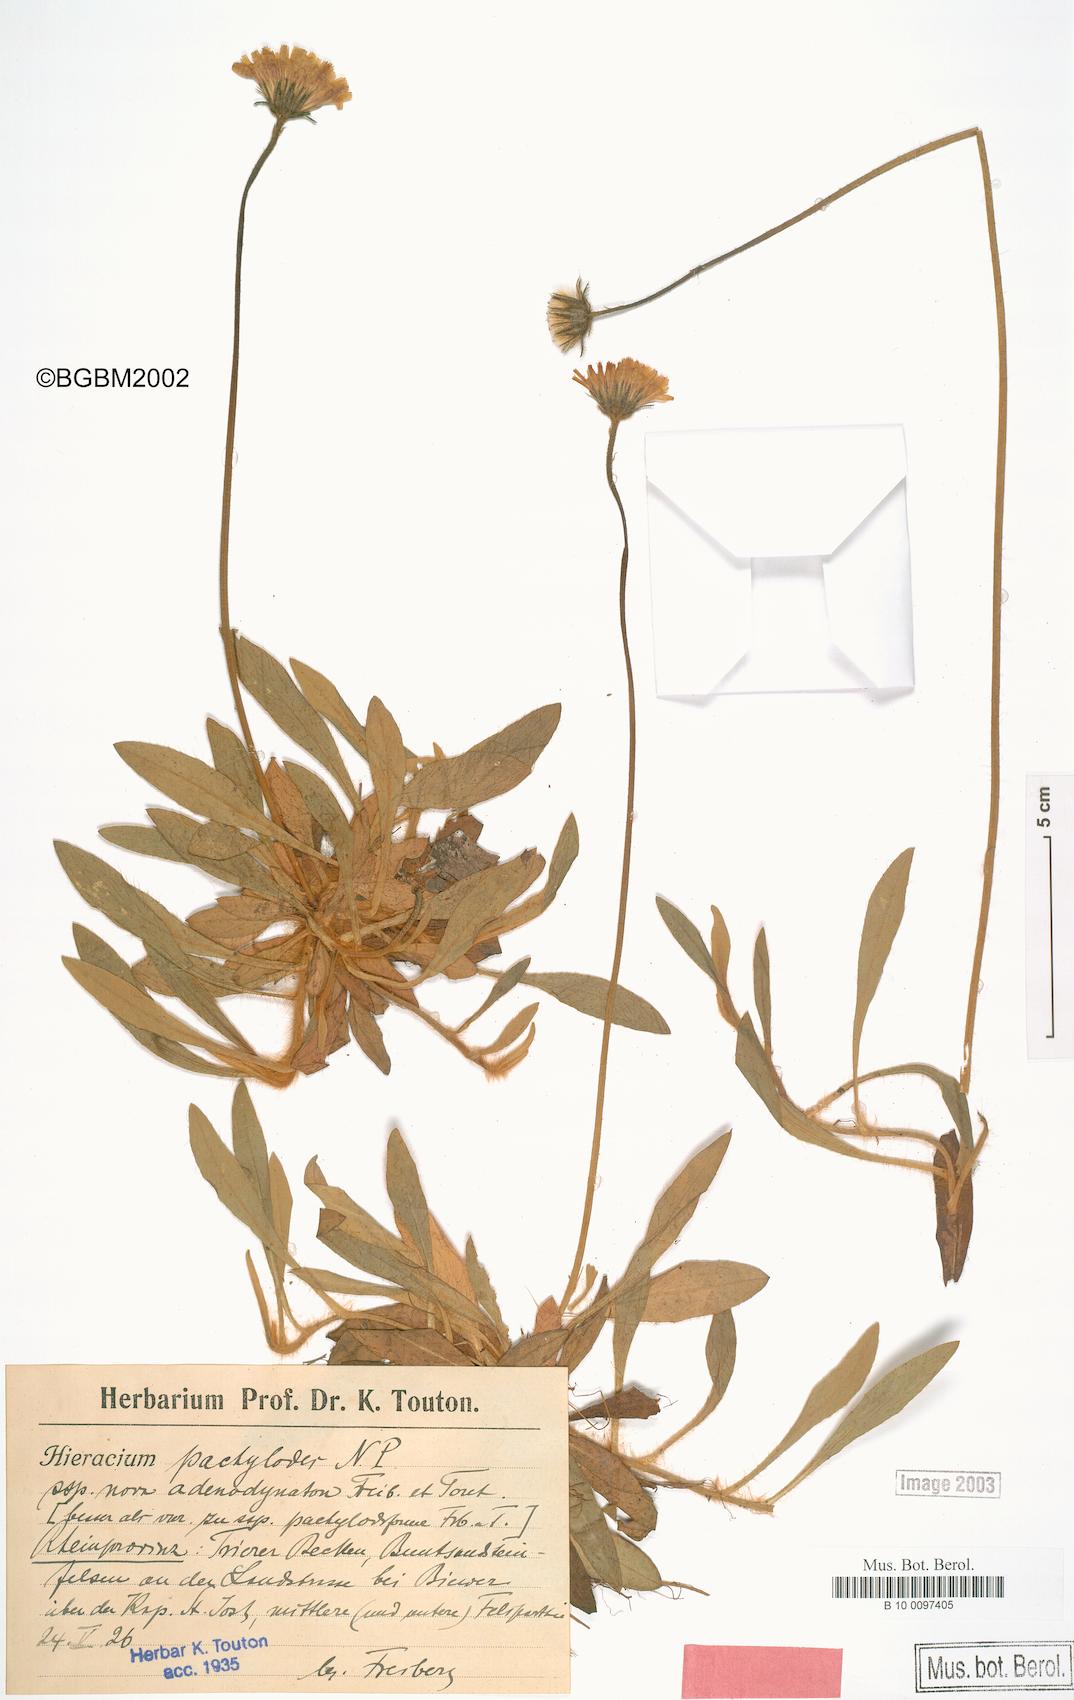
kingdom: Plantae
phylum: Tracheophyta
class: Magnoliopsida
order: Asterales
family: Asteraceae
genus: Pilosella
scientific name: Pilosella longisquama
